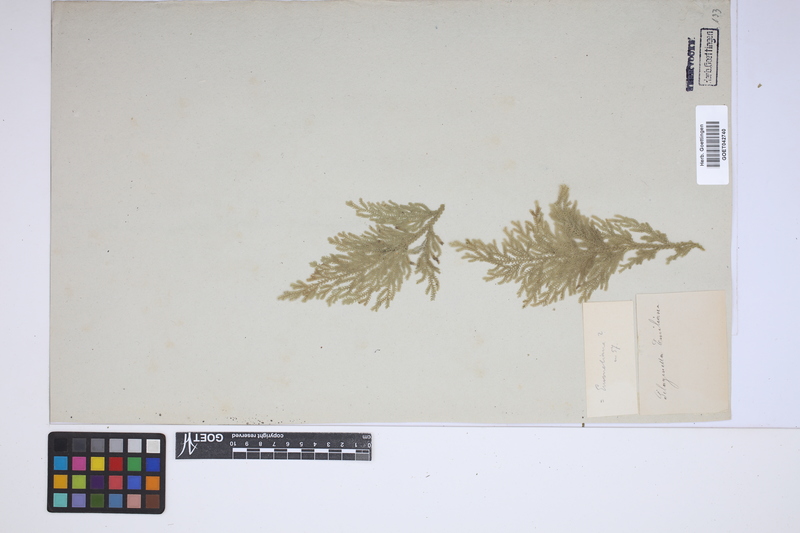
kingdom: Plantae
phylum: Tracheophyta
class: Lycopodiopsida
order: Selaginellales
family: Selaginellaceae
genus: Selaginella
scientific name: Selaginella pallescens
